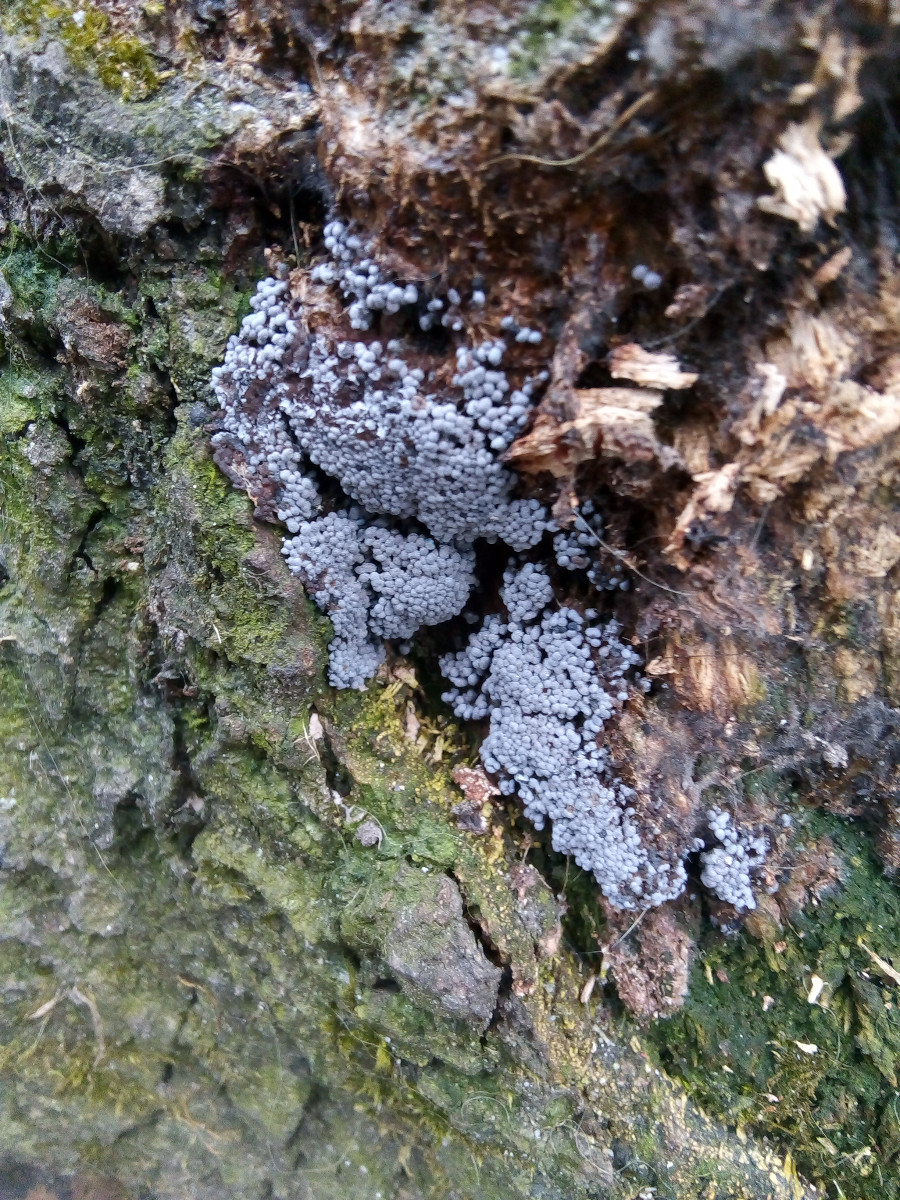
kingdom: Protozoa
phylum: Mycetozoa
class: Myxomycetes
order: Physarales
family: Physaraceae
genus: Badhamia
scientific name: Badhamia utricularis
